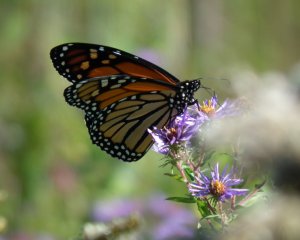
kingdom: Animalia
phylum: Arthropoda
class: Insecta
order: Lepidoptera
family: Nymphalidae
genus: Danaus
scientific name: Danaus plexippus
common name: Monarch
